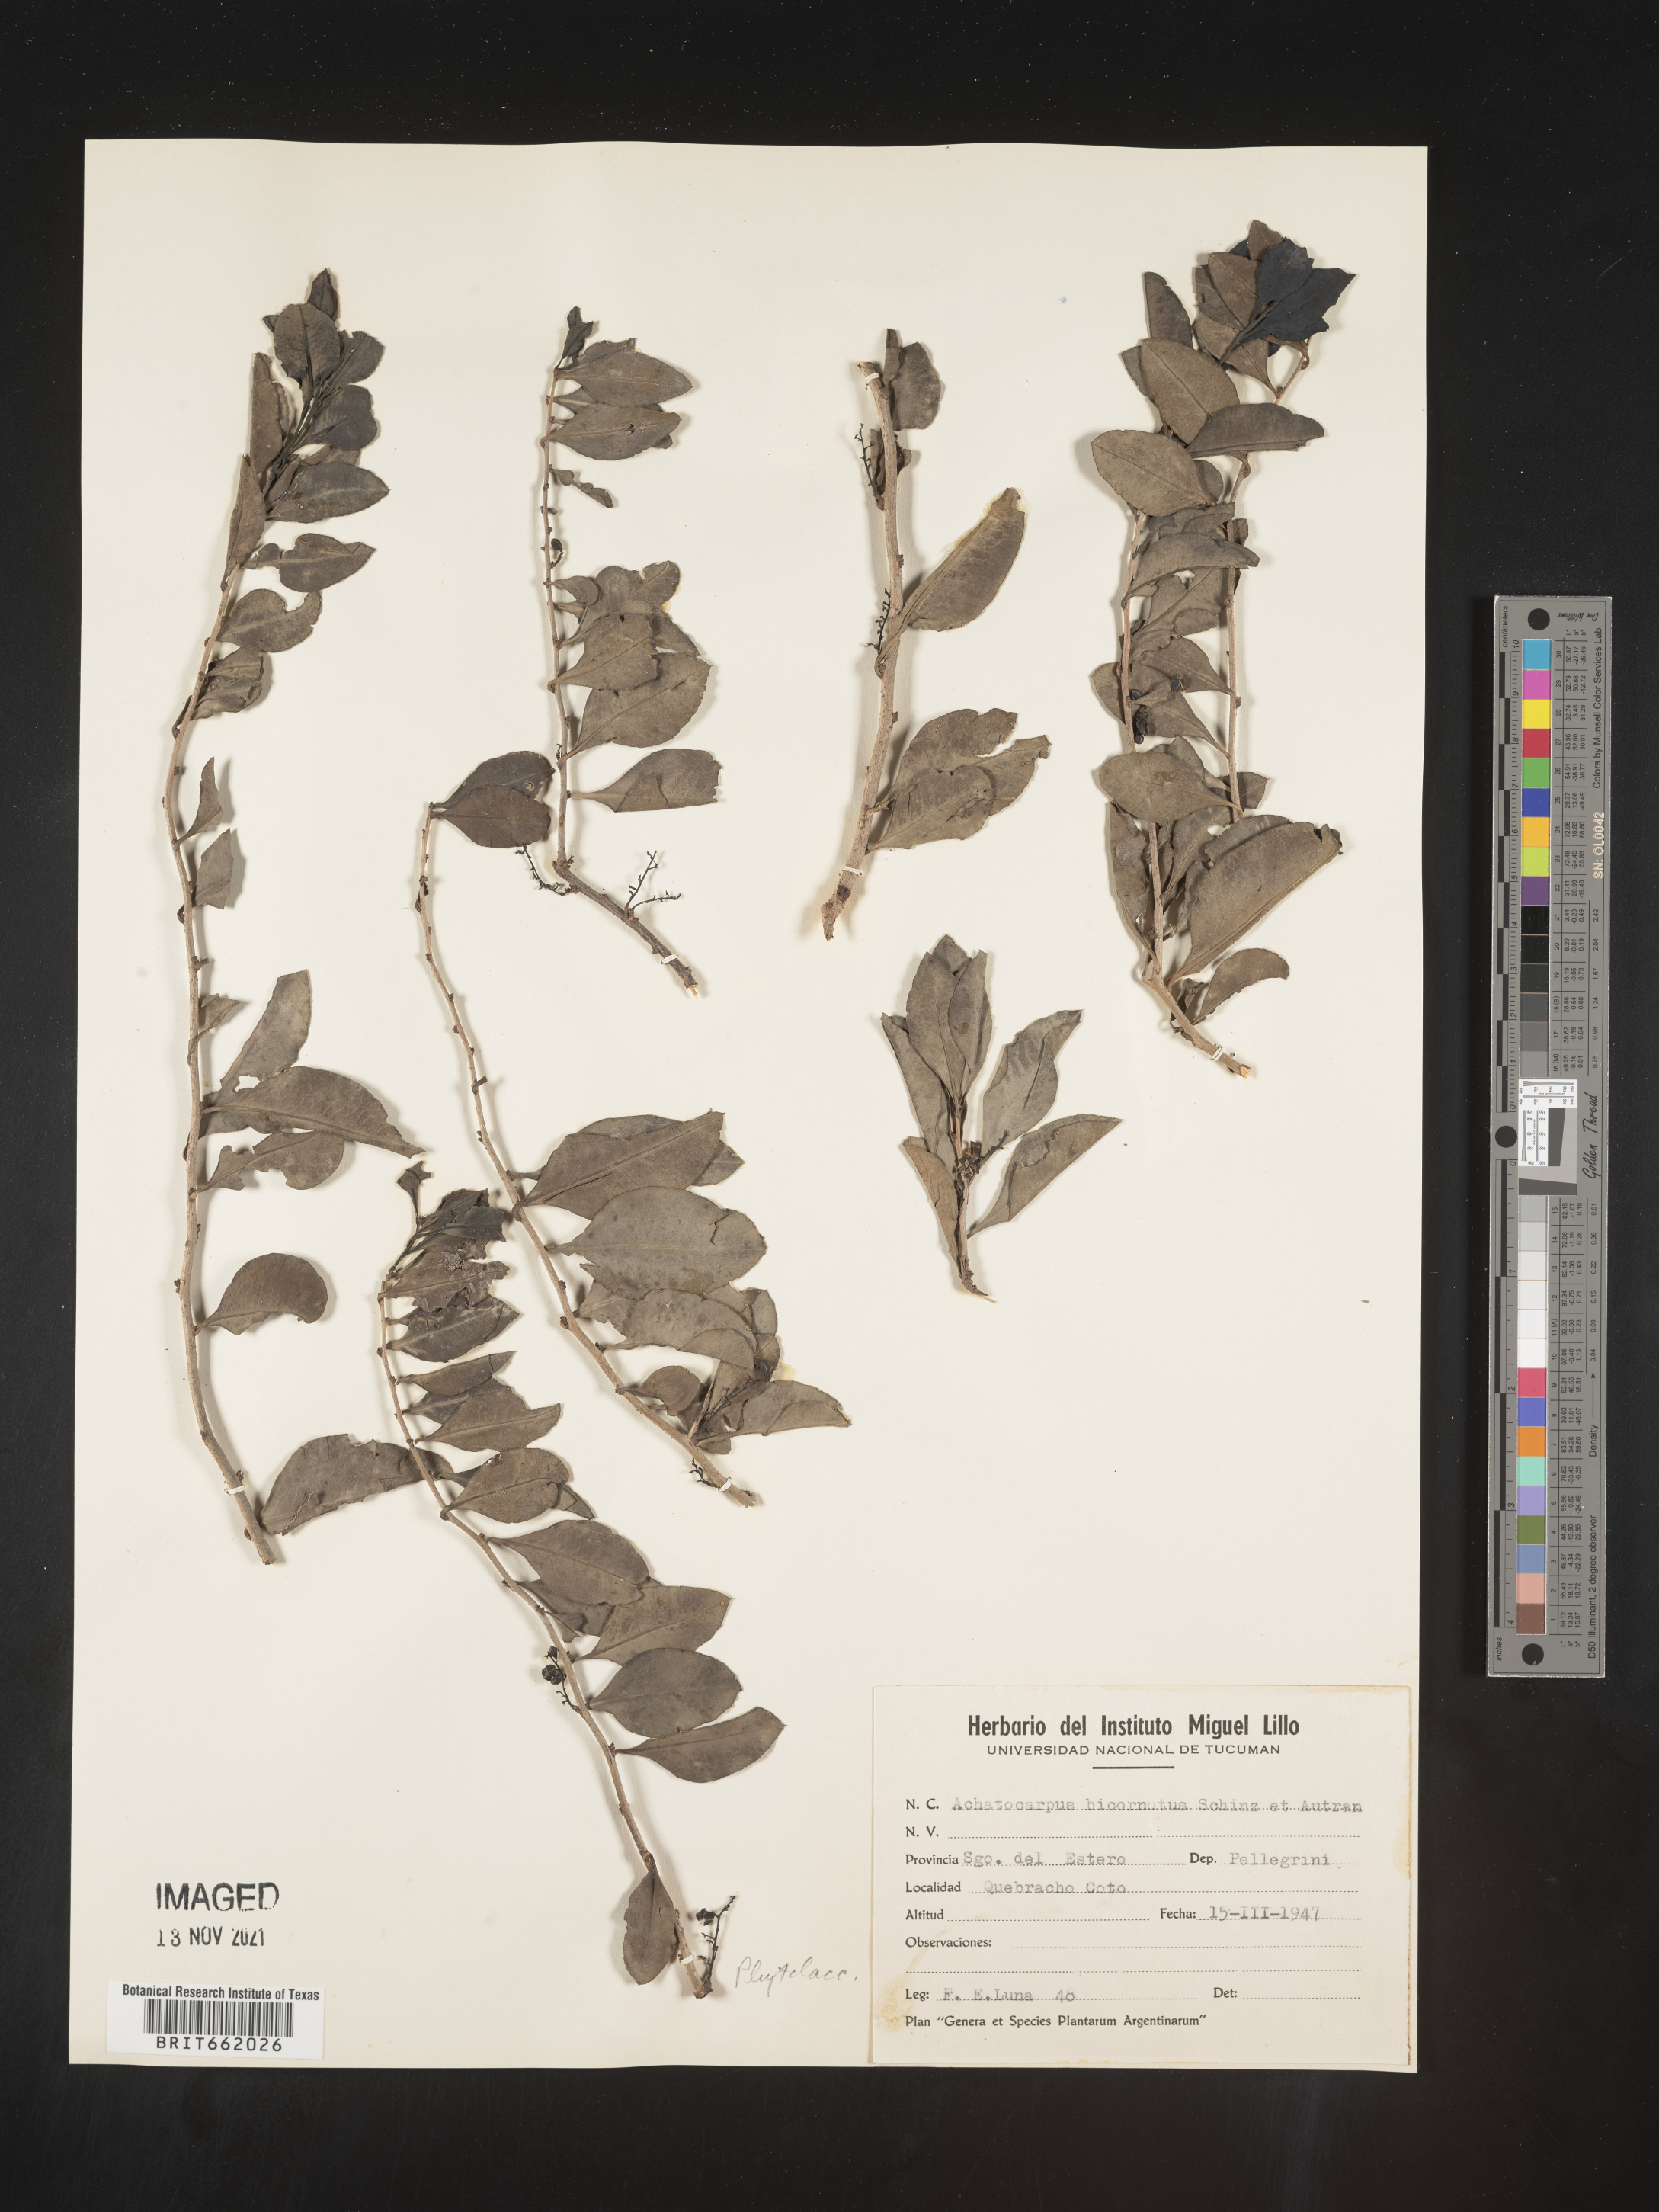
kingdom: Plantae
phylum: Tracheophyta
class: Magnoliopsida
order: Caryophyllales
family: Achatocarpaceae
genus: Achatocarpus
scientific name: Achatocarpus
